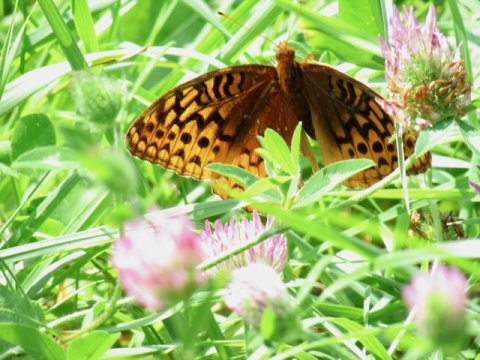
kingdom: Animalia
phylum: Arthropoda
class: Insecta
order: Lepidoptera
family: Nymphalidae
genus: Speyeria
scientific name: Speyeria cybele
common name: Great Spangled Fritillary
